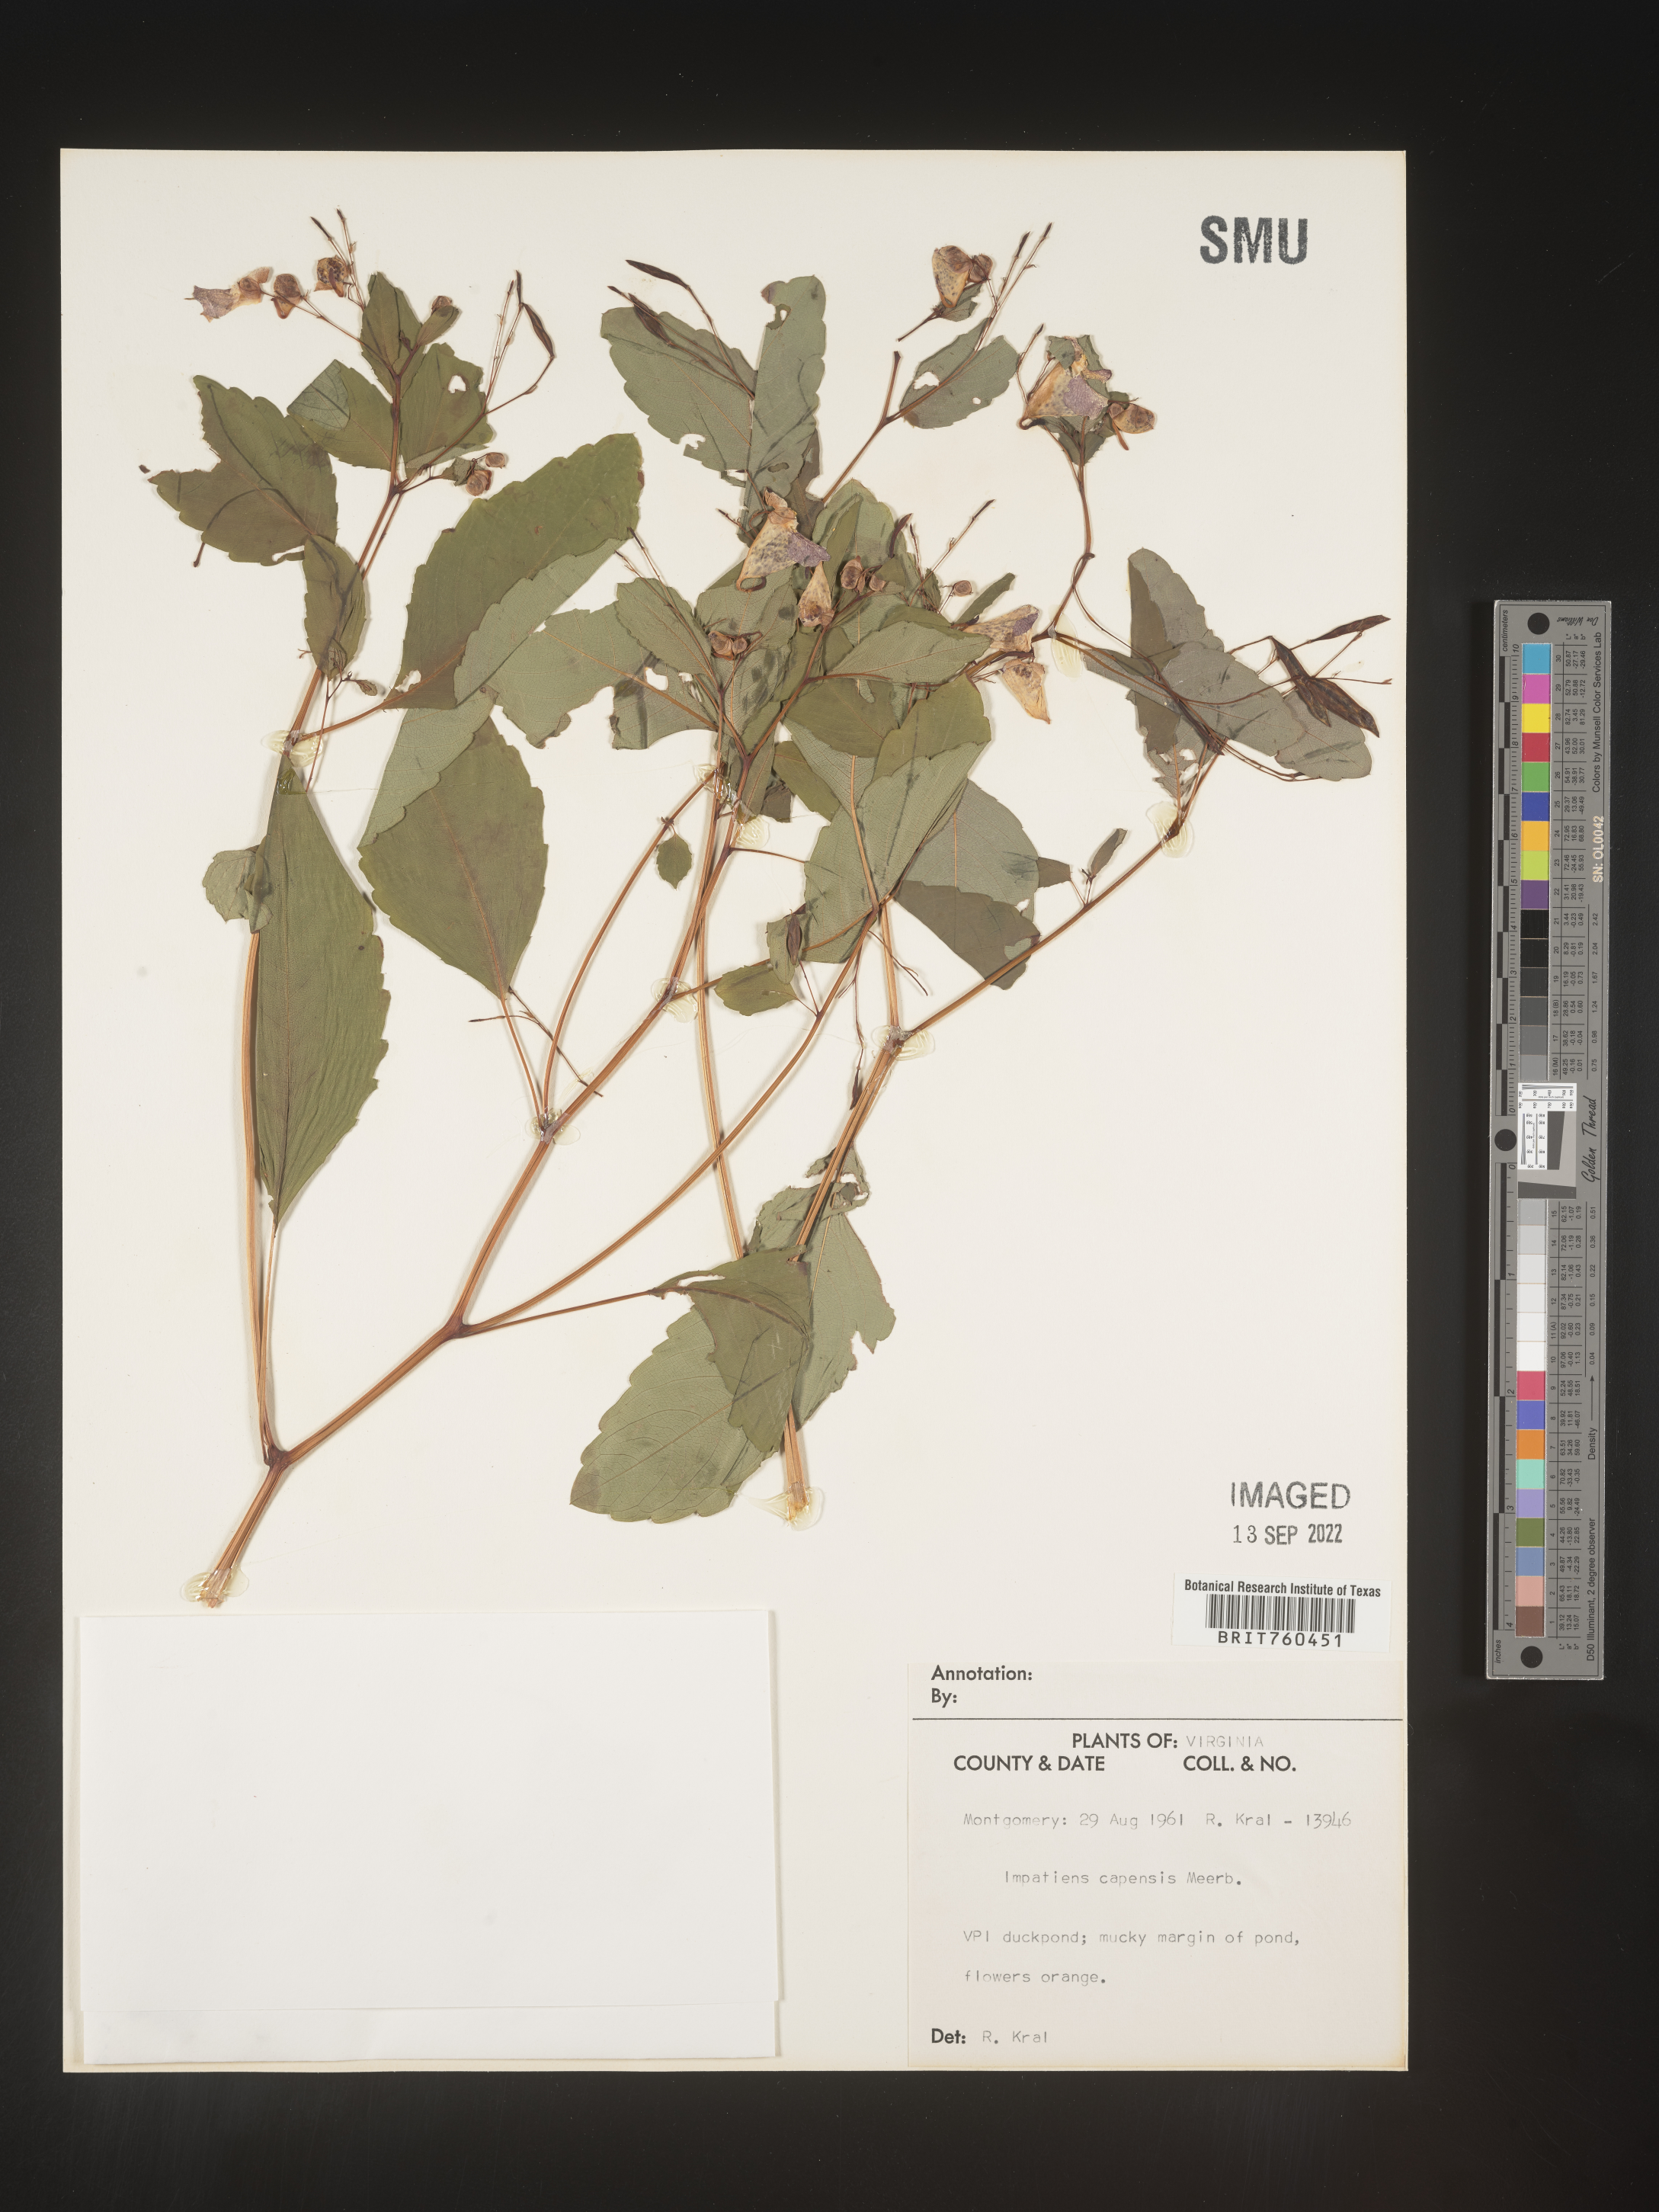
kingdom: Plantae
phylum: Tracheophyta
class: Magnoliopsida
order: Ericales
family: Balsaminaceae
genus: Impatiens
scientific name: Impatiens capensis
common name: Orange balsam
